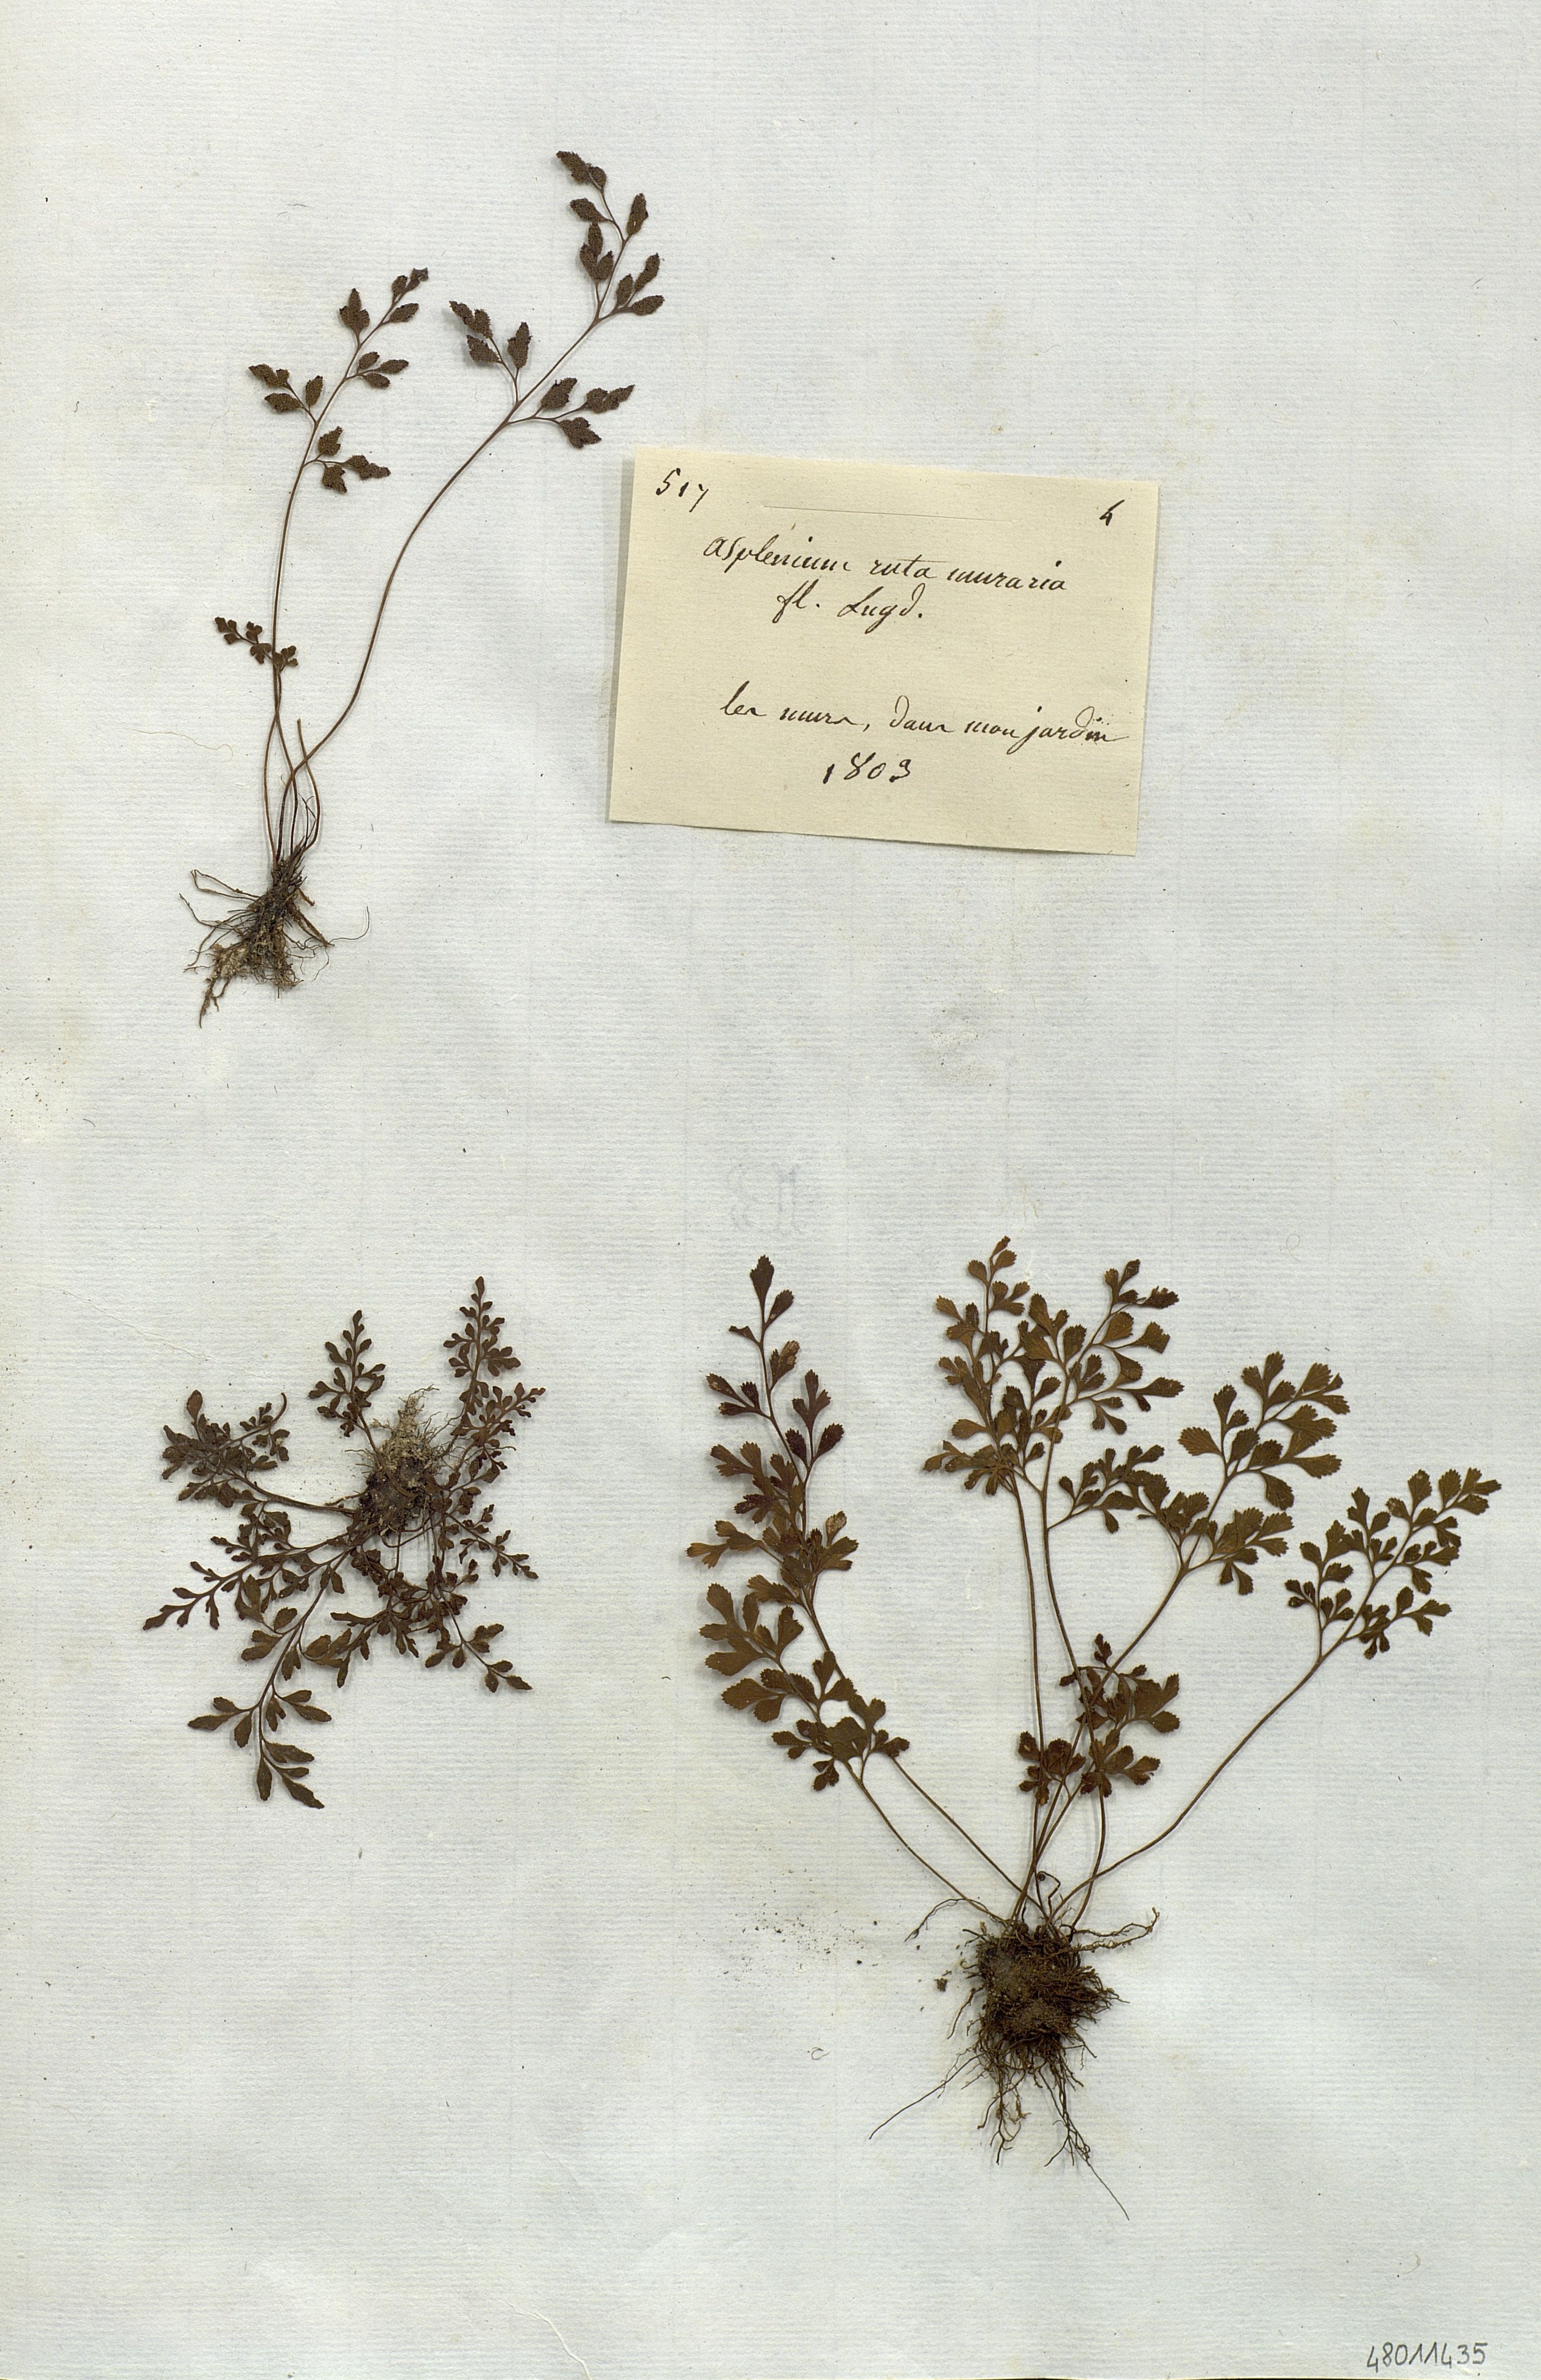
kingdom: Plantae
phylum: Tracheophyta
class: Polypodiopsida
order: Polypodiales
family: Aspleniaceae
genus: Asplenium
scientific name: Asplenium ruta-muraria
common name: Wall-rue
